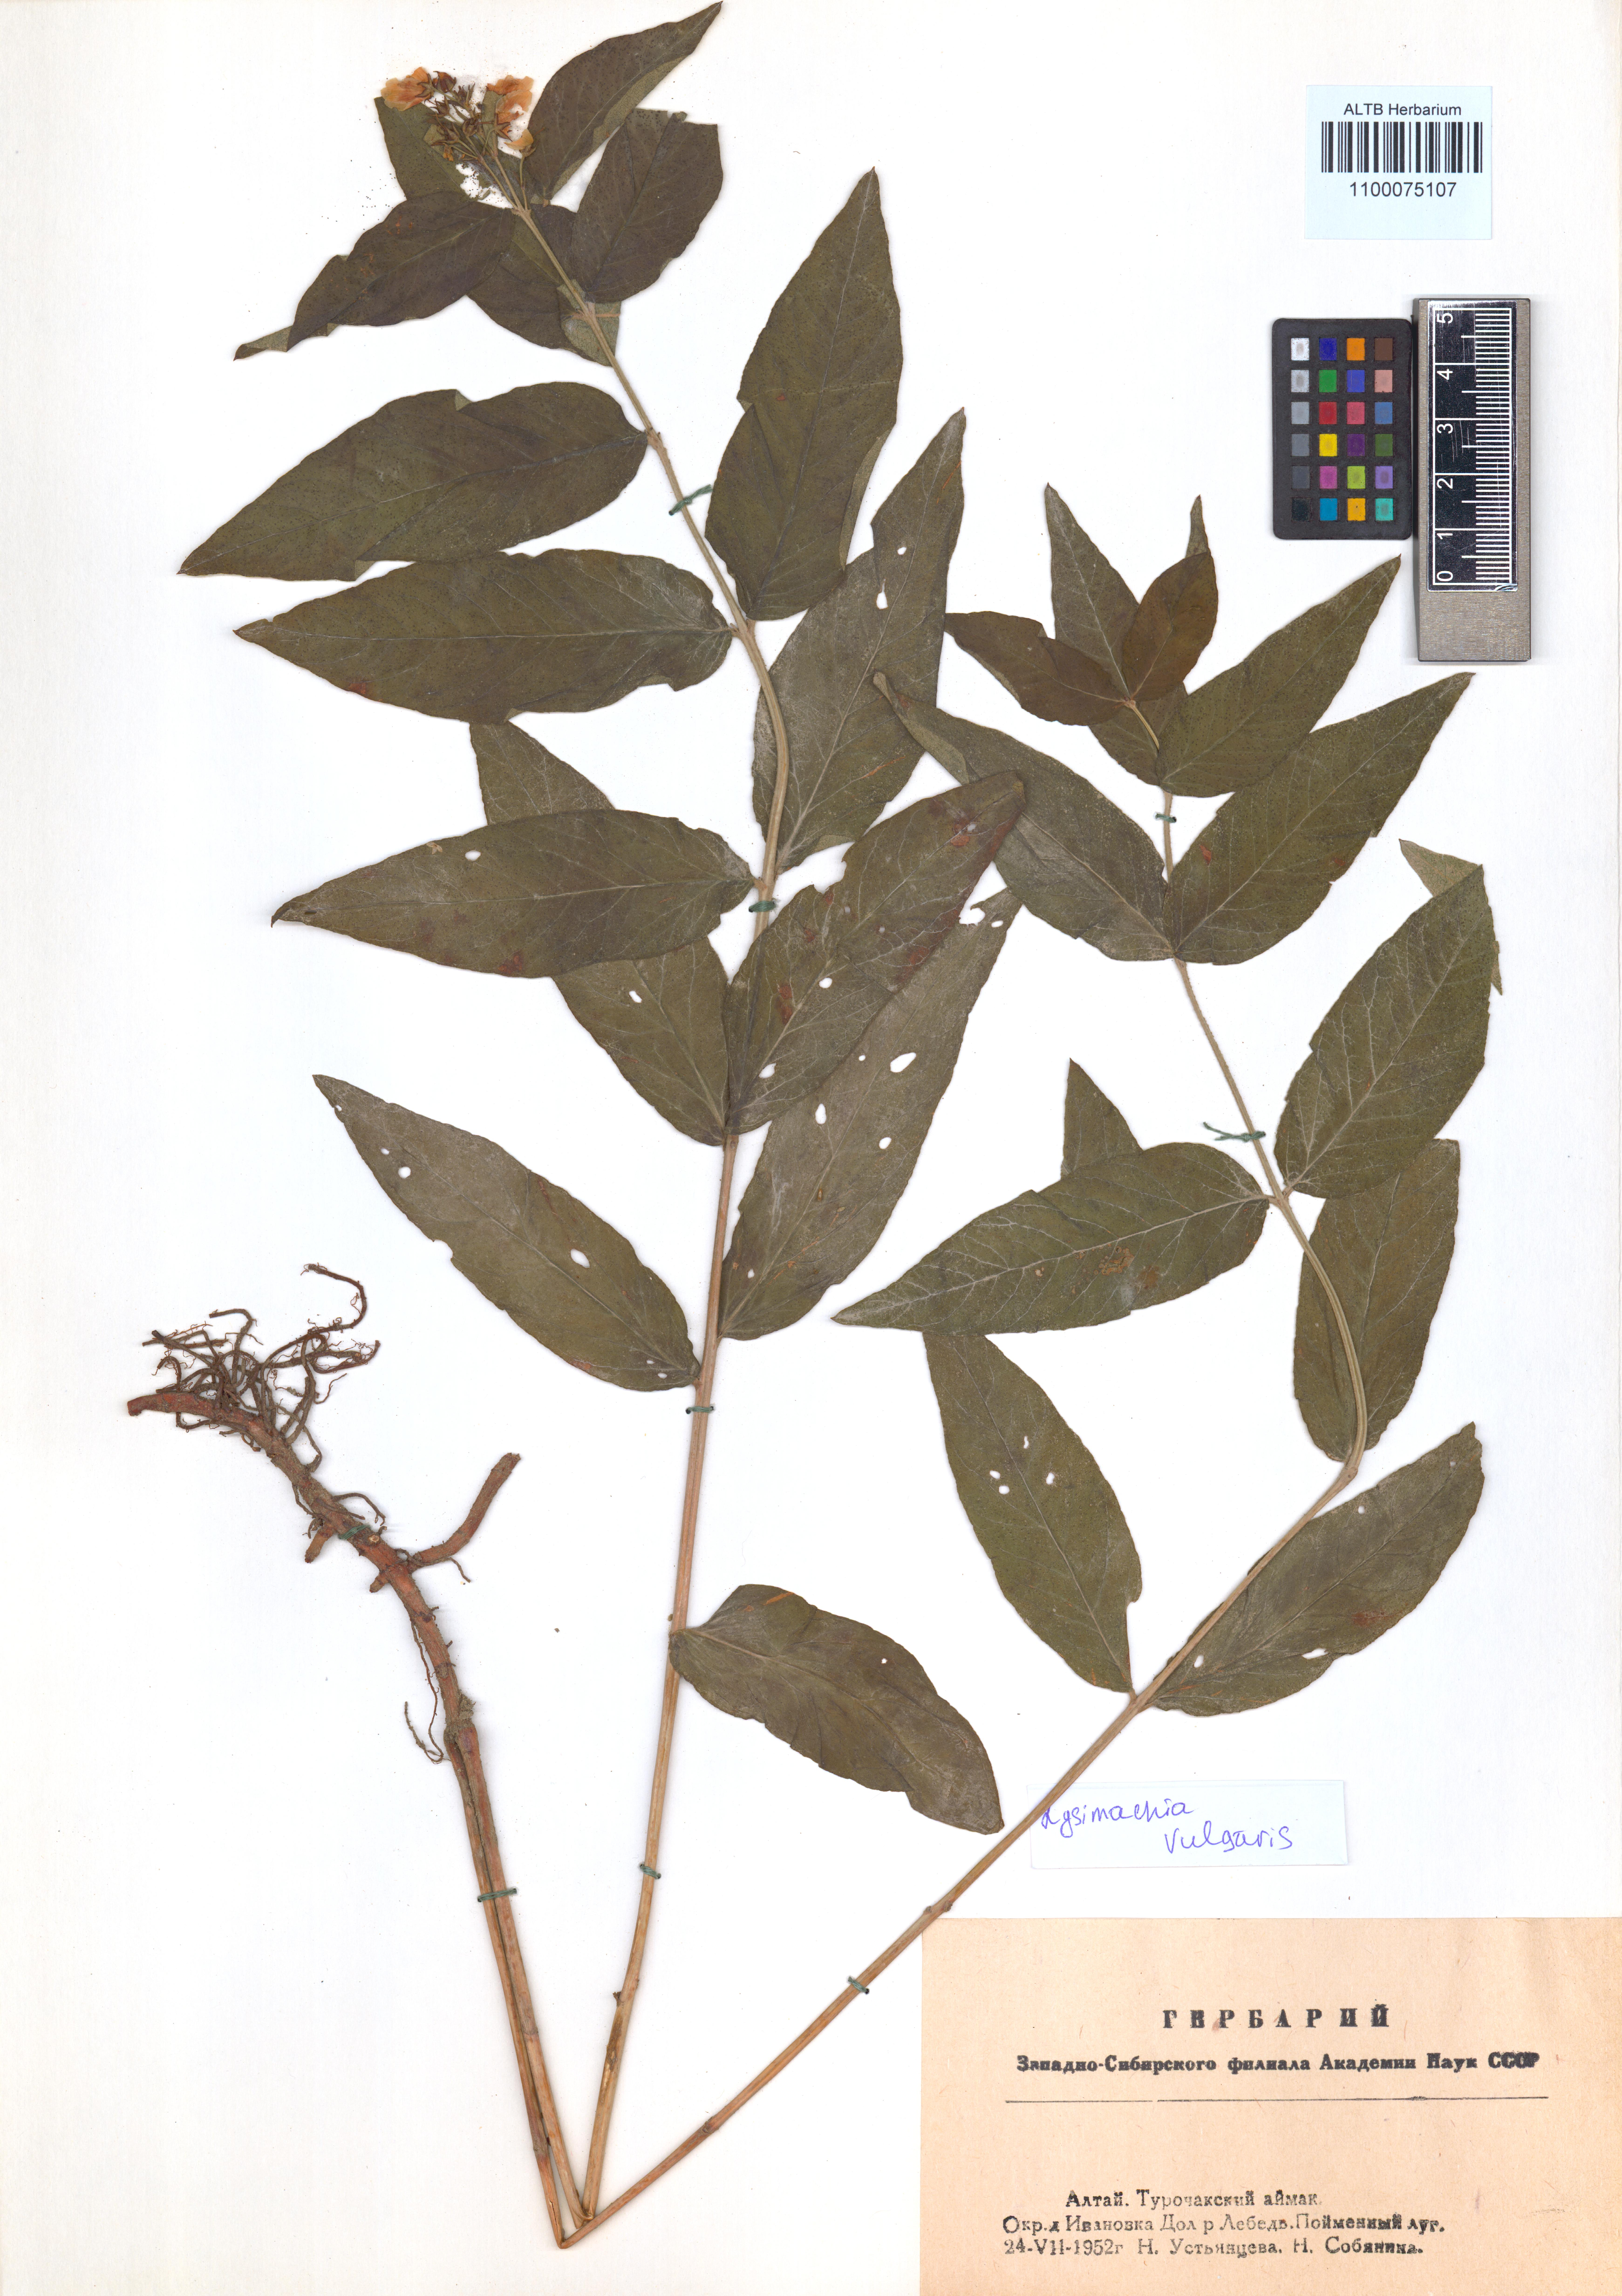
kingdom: Plantae
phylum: Tracheophyta
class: Magnoliopsida
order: Ericales
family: Primulaceae
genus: Lysimachia
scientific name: Lysimachia vulgaris
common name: Yellow loosestrife
